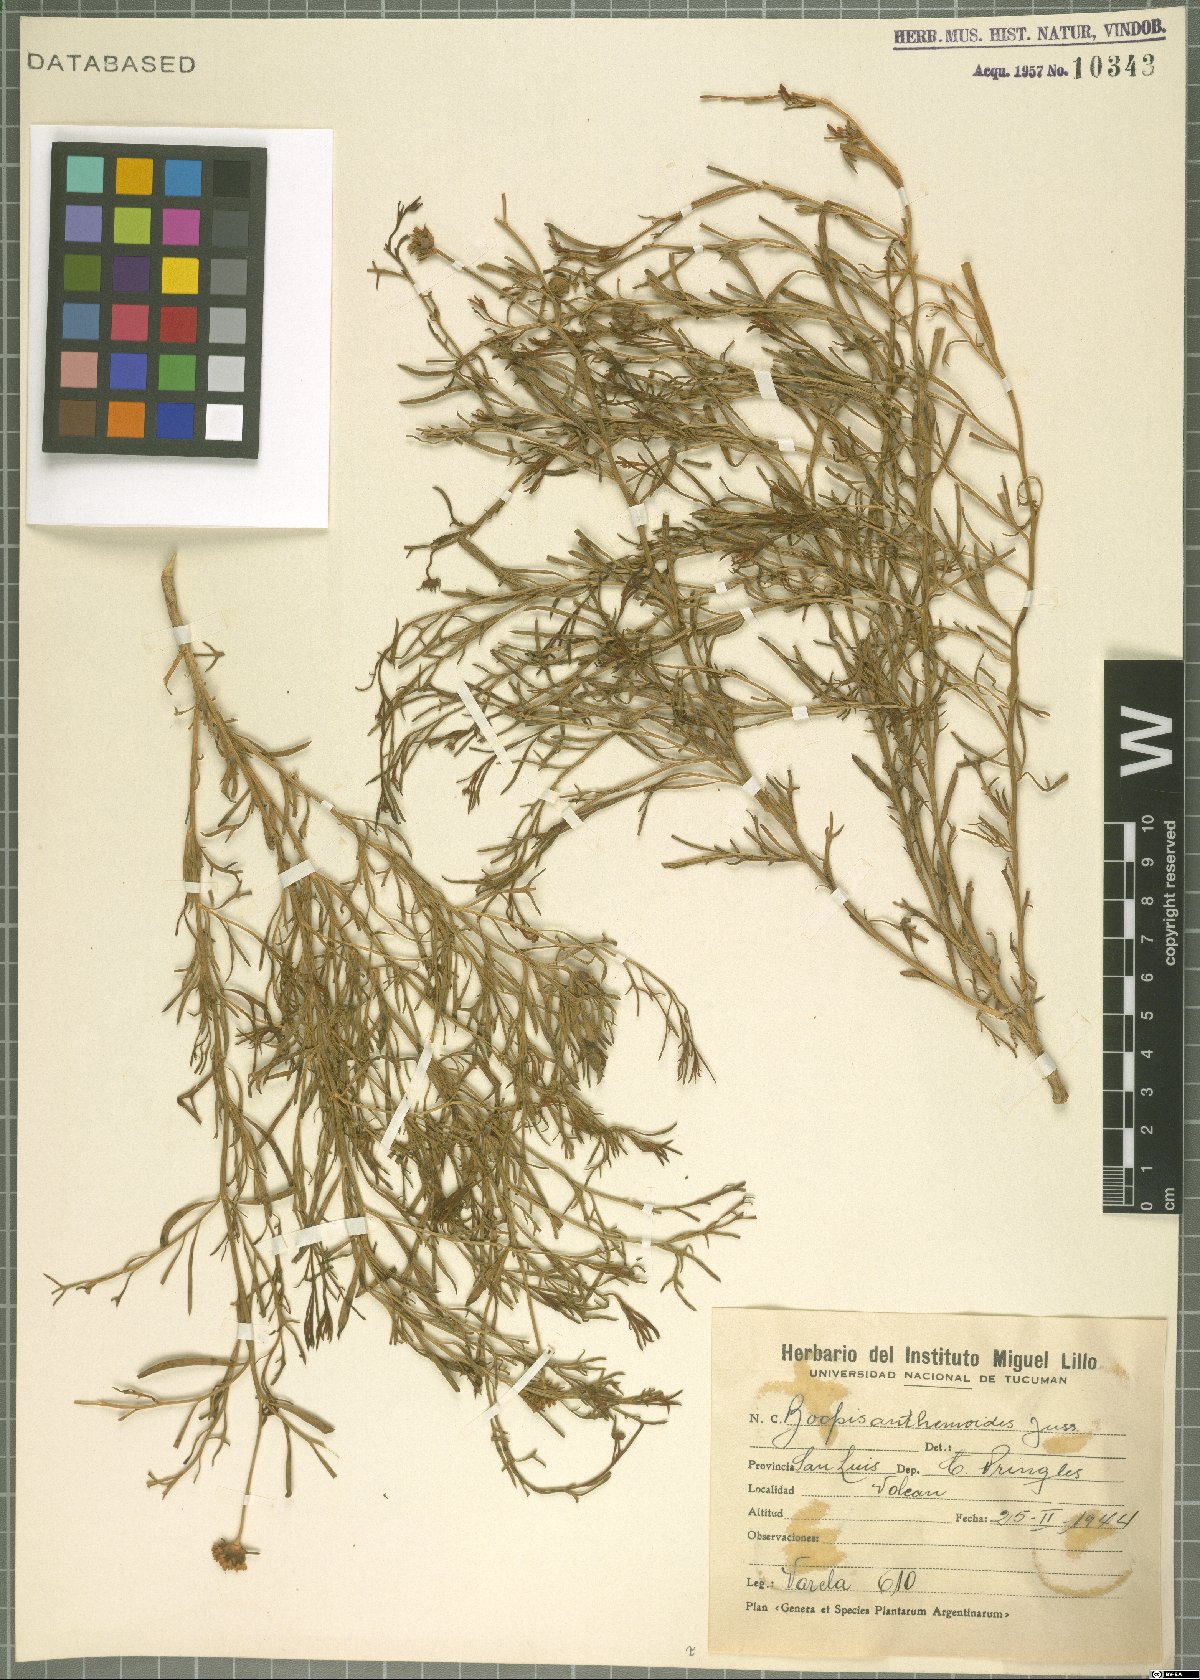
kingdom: Plantae
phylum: Tracheophyta
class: Magnoliopsida
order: Asterales
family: Calyceraceae
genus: Boopis
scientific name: Boopis anthemoides
